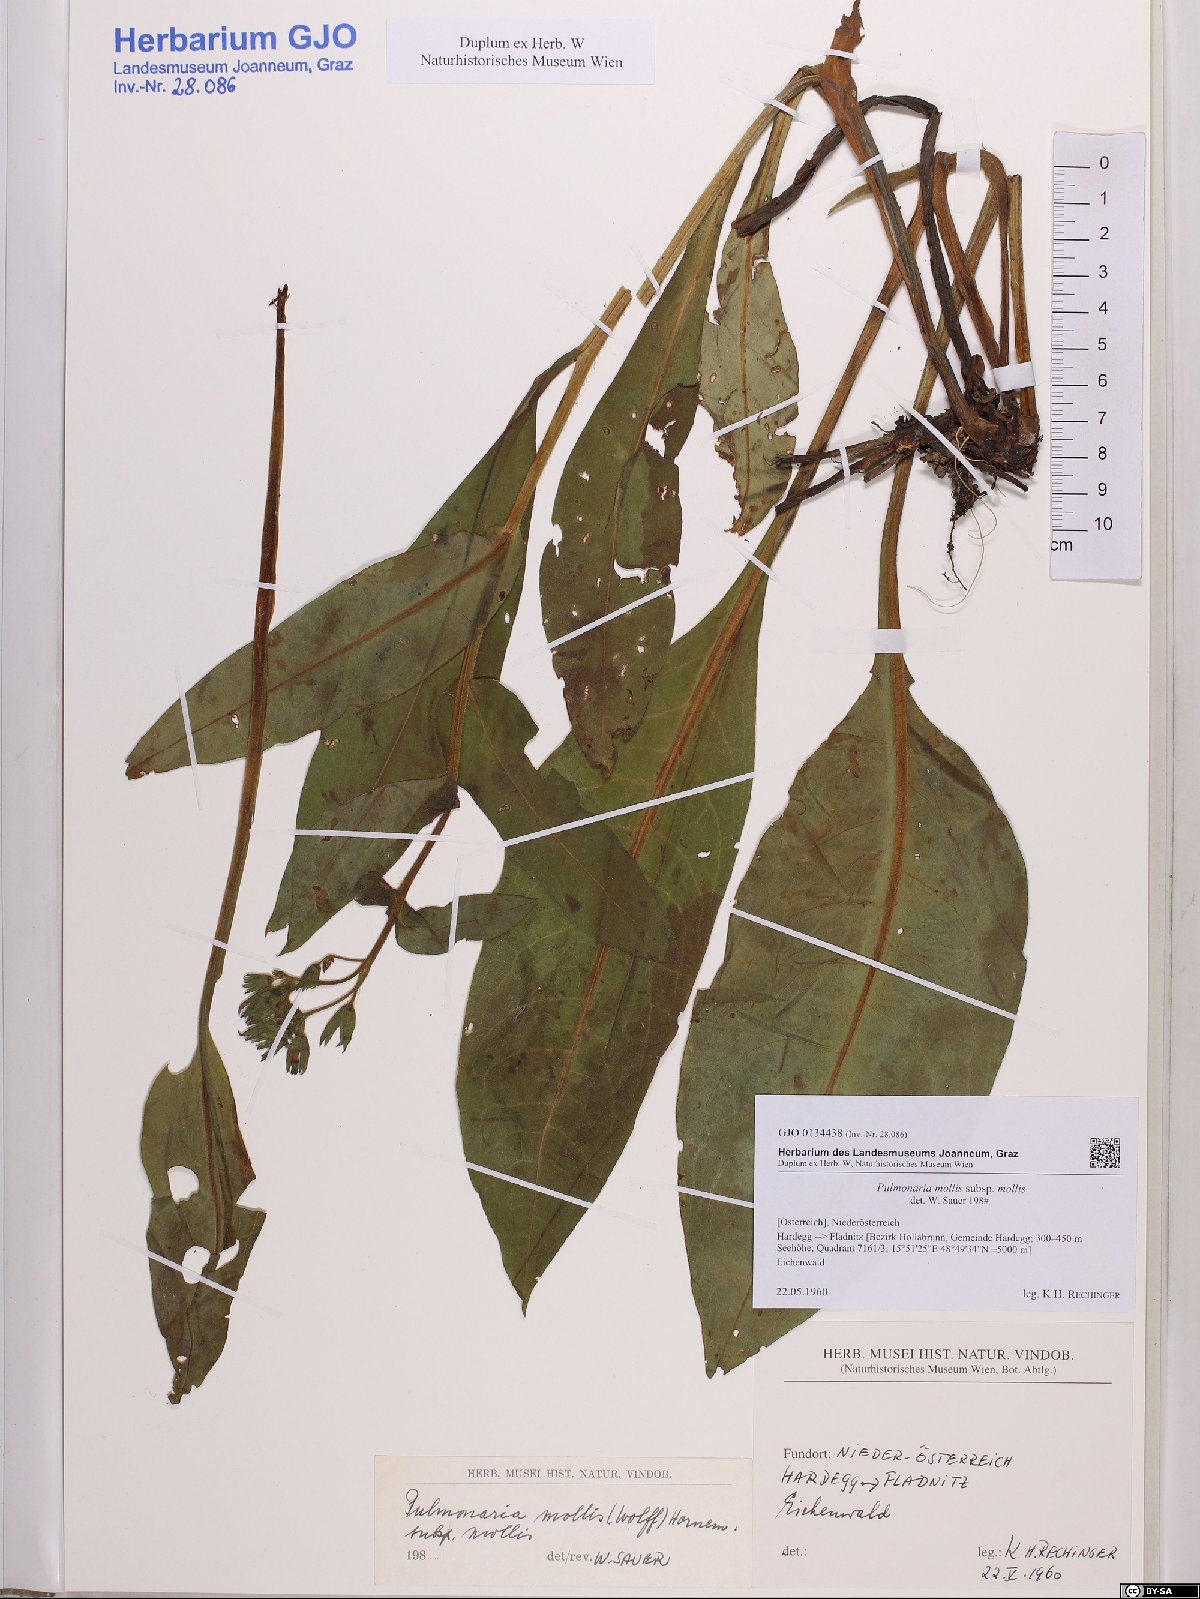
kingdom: Plantae
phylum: Tracheophyta
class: Magnoliopsida
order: Boraginales
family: Boraginaceae
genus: Pulmonaria
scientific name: Pulmonaria mollis
